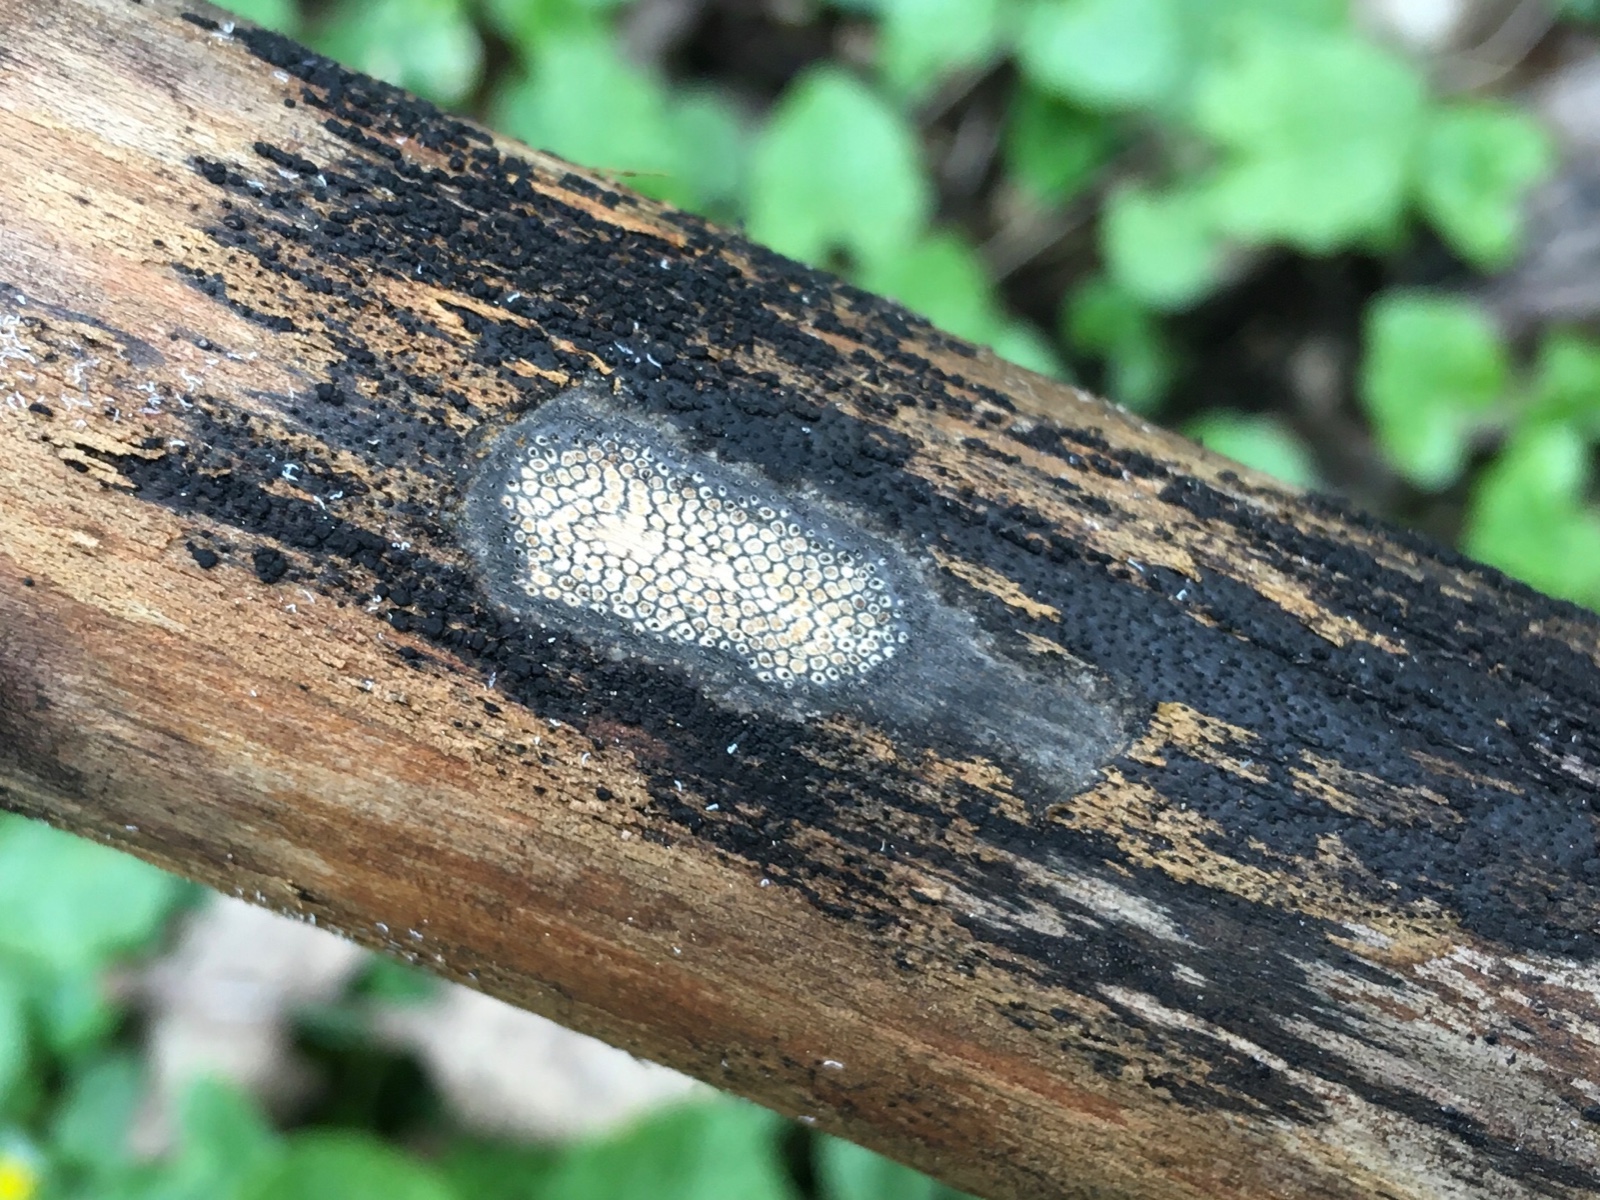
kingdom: Fungi
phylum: Ascomycota
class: Sordariomycetes
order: Xylariales
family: Diatrypaceae
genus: Eutypa
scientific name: Eutypa maura
